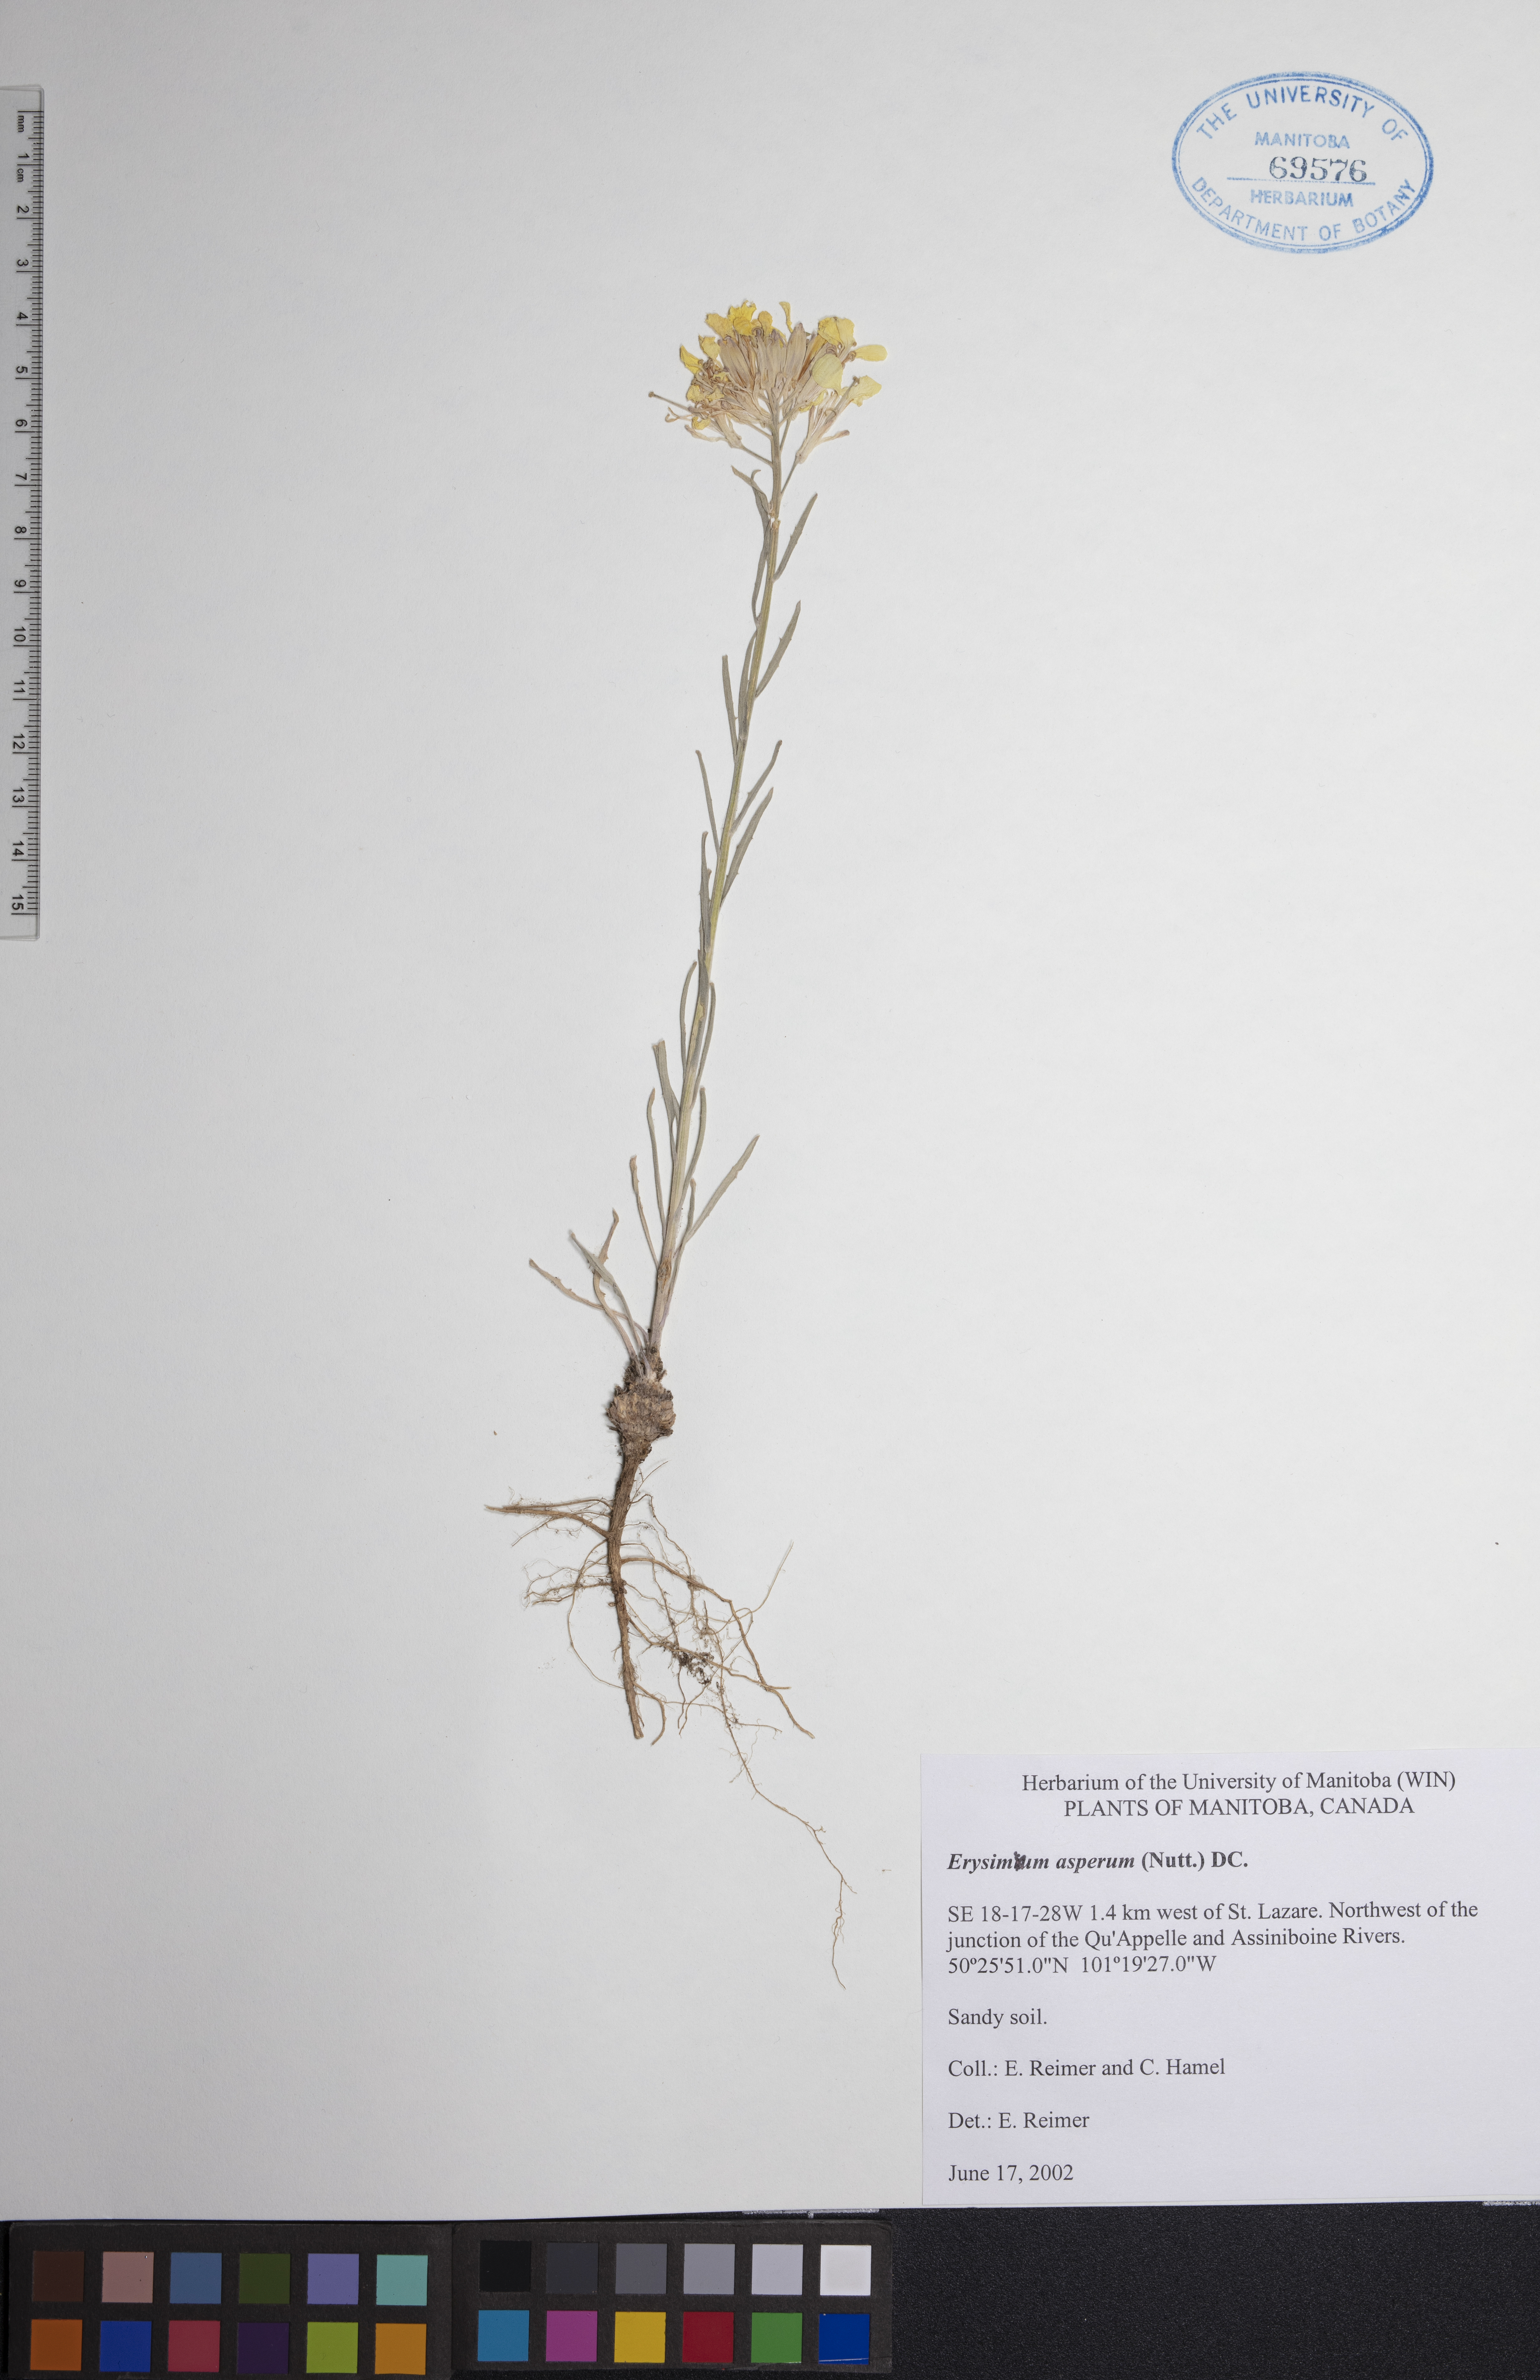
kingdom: Plantae
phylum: Tracheophyta
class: Magnoliopsida
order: Brassicales
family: Brassicaceae
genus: Erysimum
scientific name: Erysimum asperum
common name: Western wallflower
